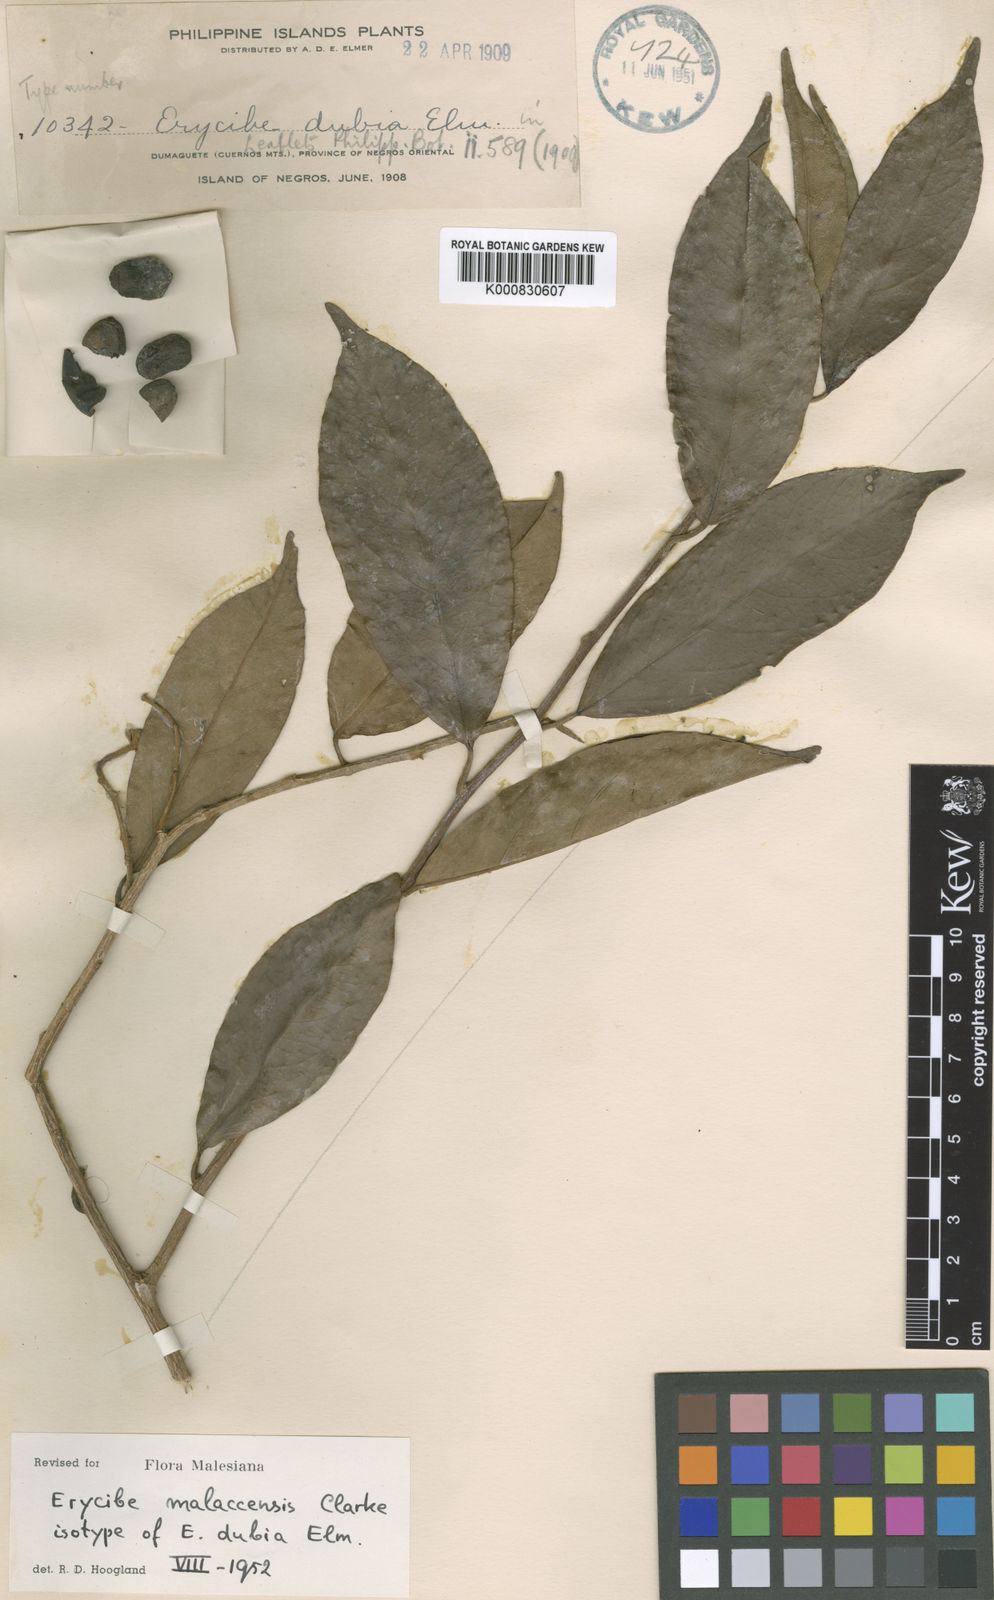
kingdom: Plantae
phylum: Tracheophyta
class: Magnoliopsida
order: Solanales
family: Convolvulaceae
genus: Erycibe
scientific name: Erycibe malaccensis
